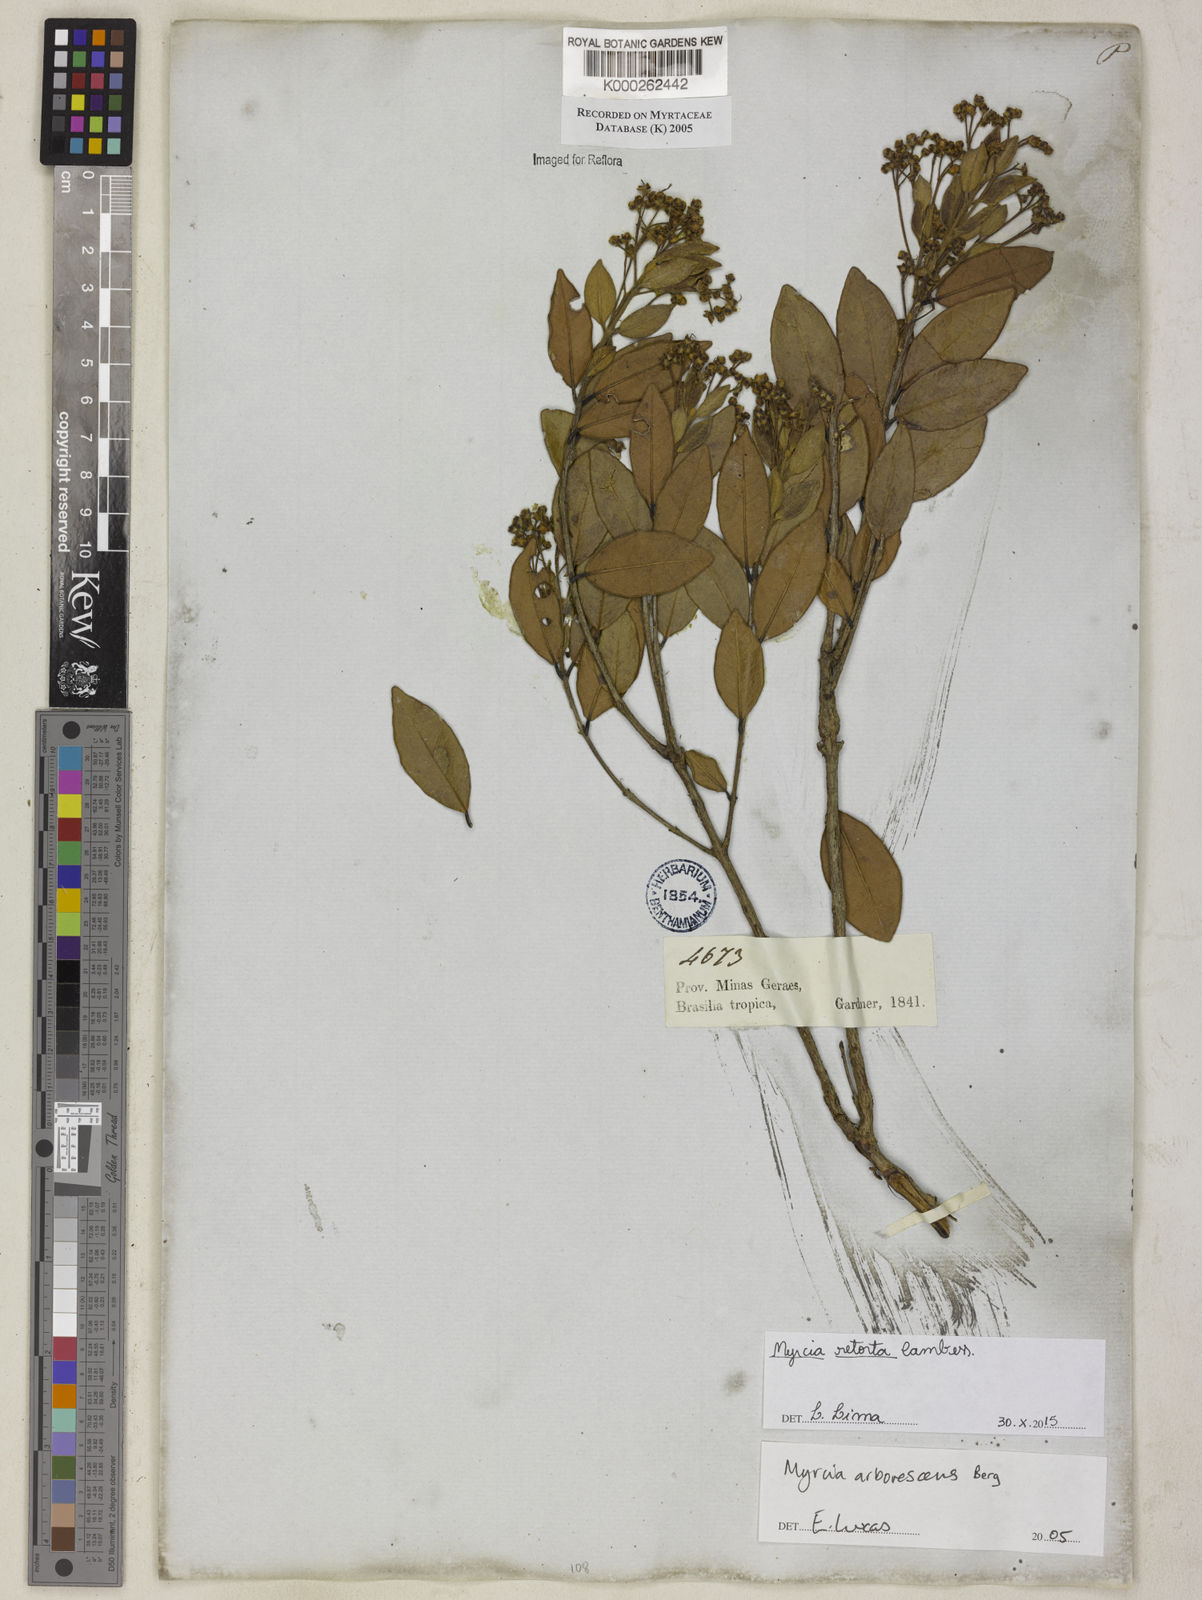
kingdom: Plantae
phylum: Tracheophyta
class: Magnoliopsida
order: Myrtales
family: Myrtaceae
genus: Myrcia
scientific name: Myrcia retorta
